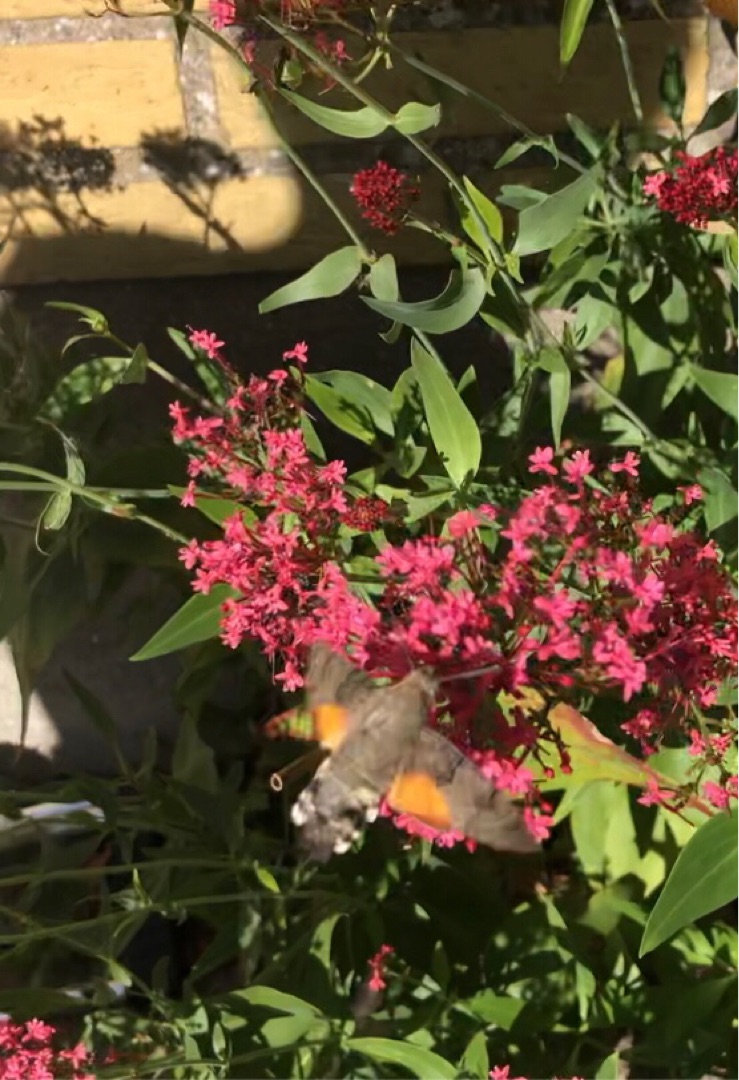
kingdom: Animalia
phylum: Arthropoda
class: Insecta
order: Lepidoptera
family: Sphingidae
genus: Macroglossum
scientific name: Macroglossum stellatarum
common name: Duehale
